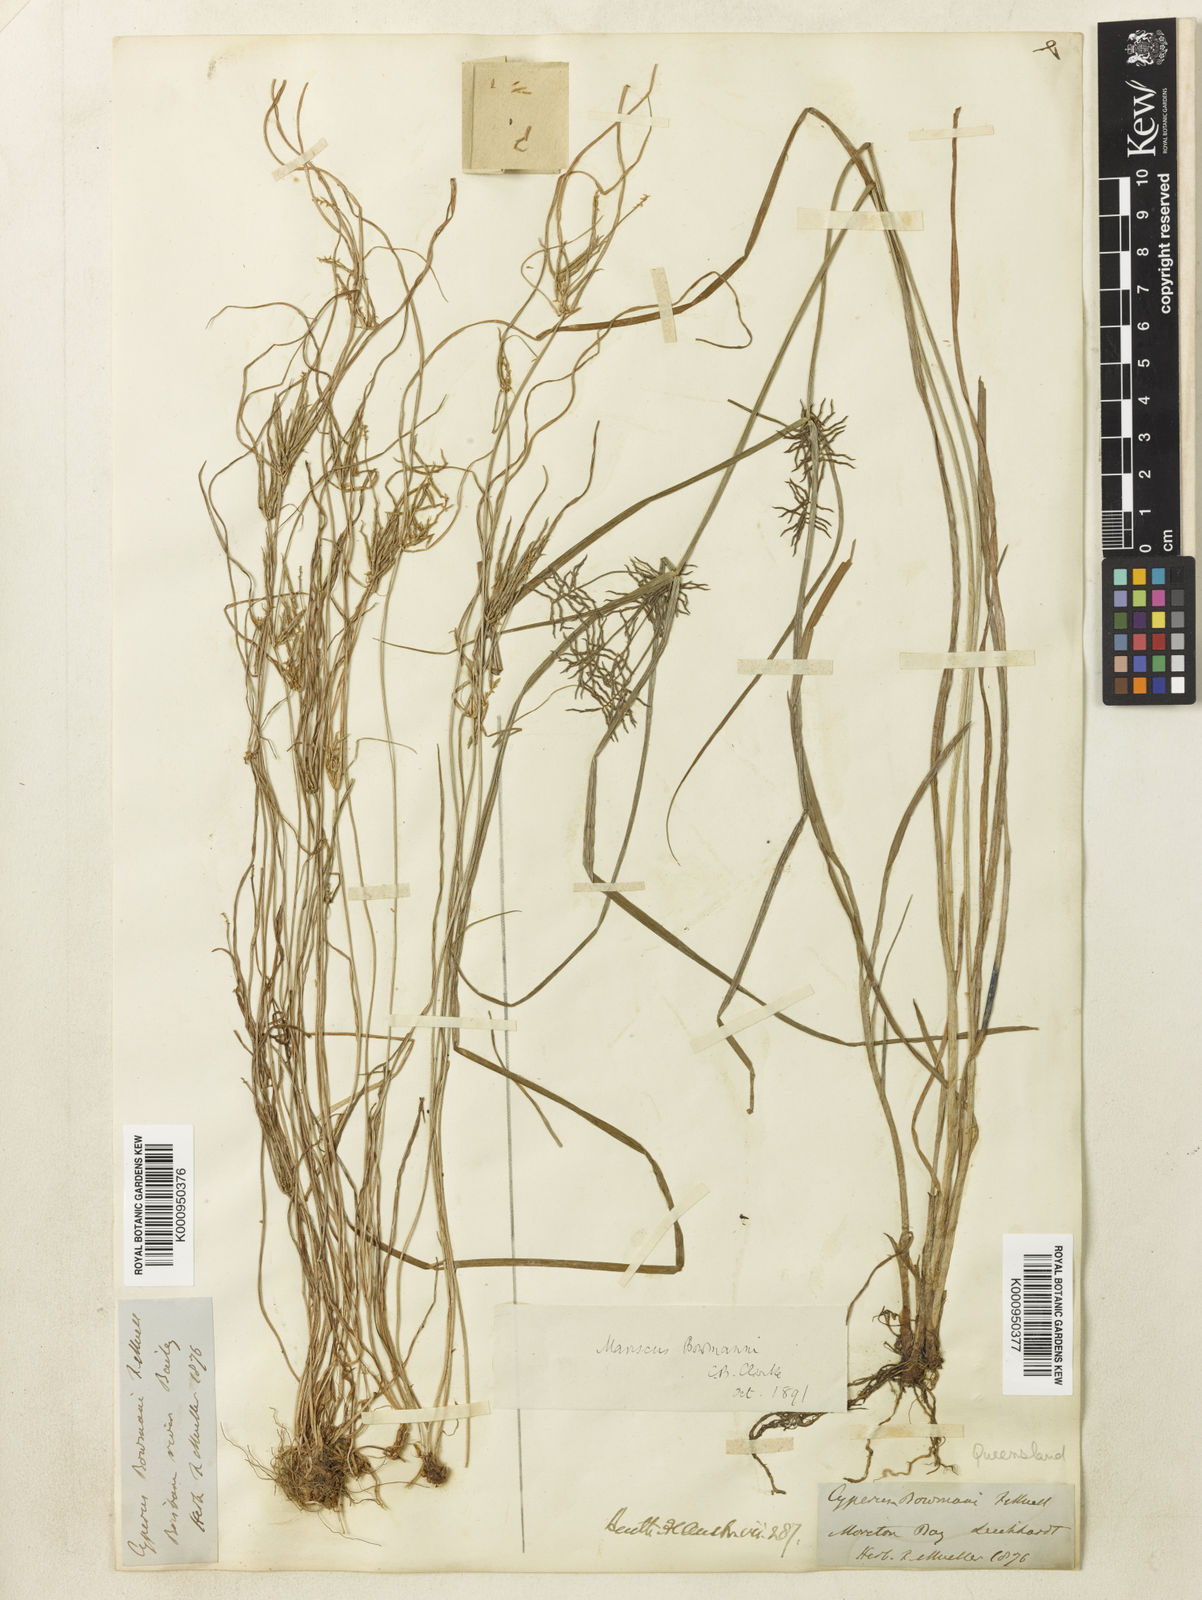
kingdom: Plantae
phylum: Tracheophyta
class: Liliopsida
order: Poales
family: Cyperaceae
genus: Cyperus
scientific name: Cyperus
